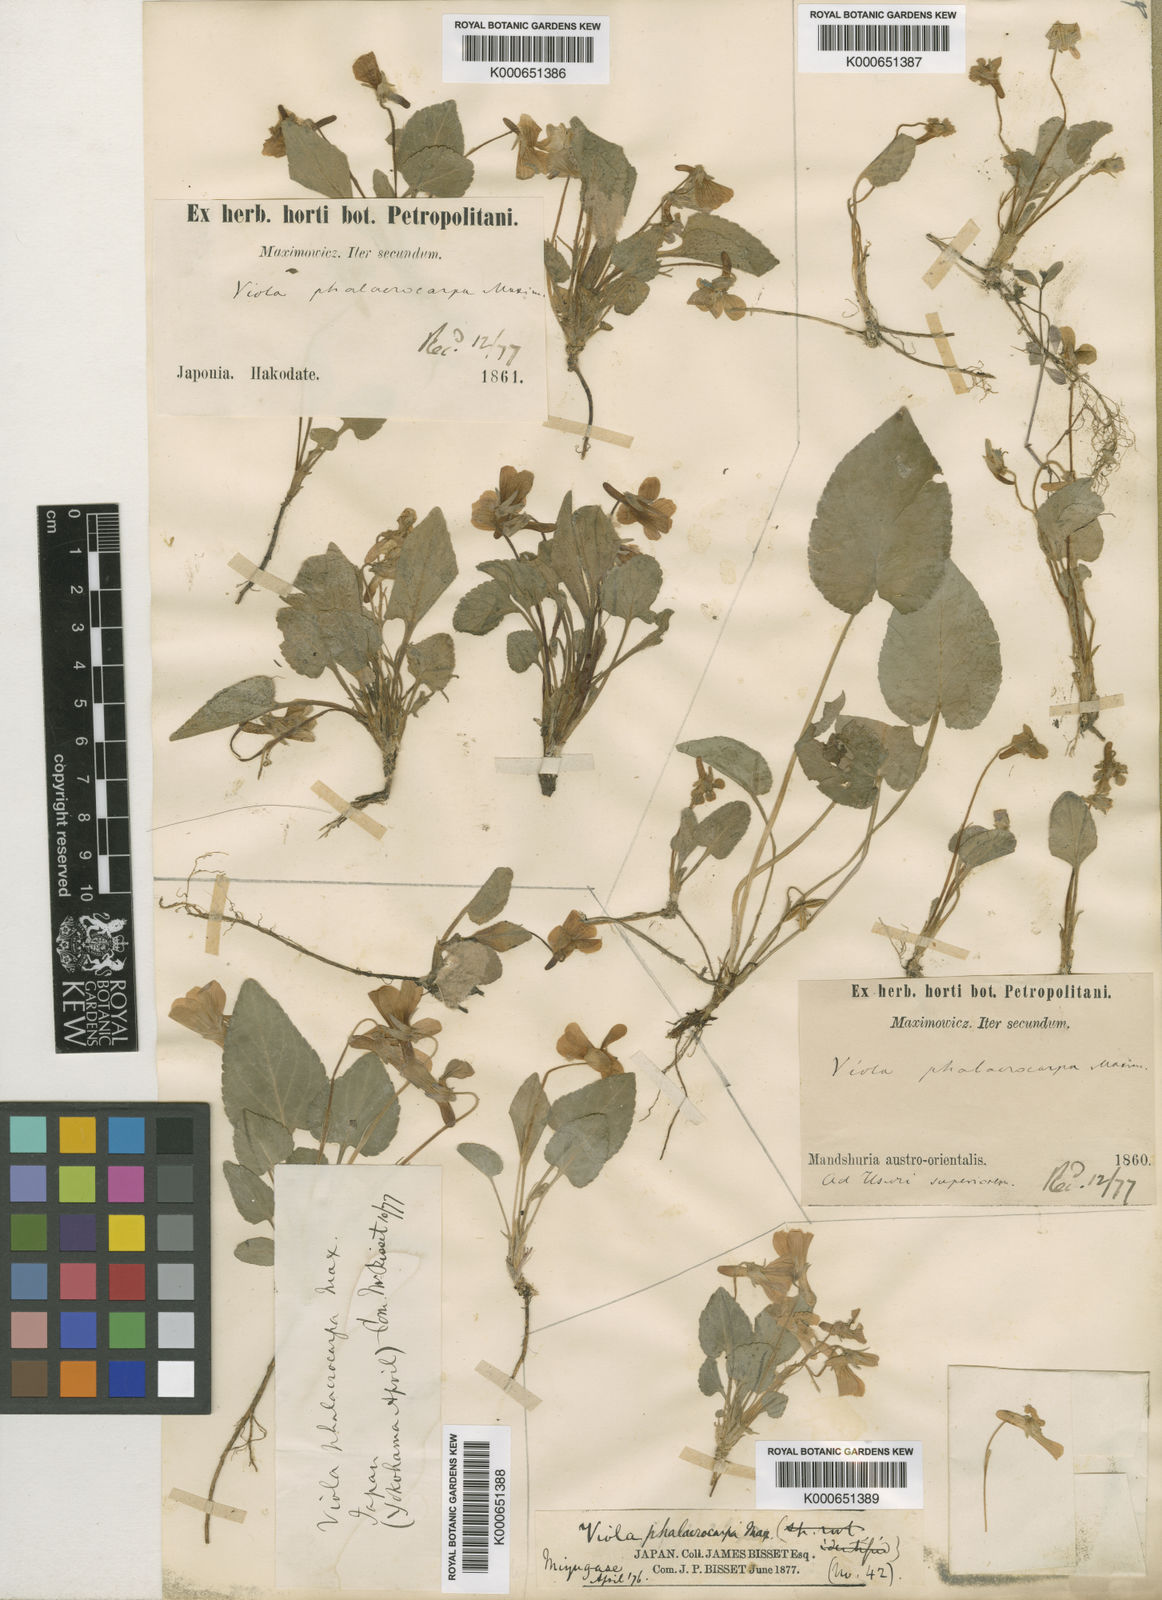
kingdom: Plantae
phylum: Tracheophyta
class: Magnoliopsida
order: Malpighiales
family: Violaceae
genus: Viola
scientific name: Viola phalacrocarpa
